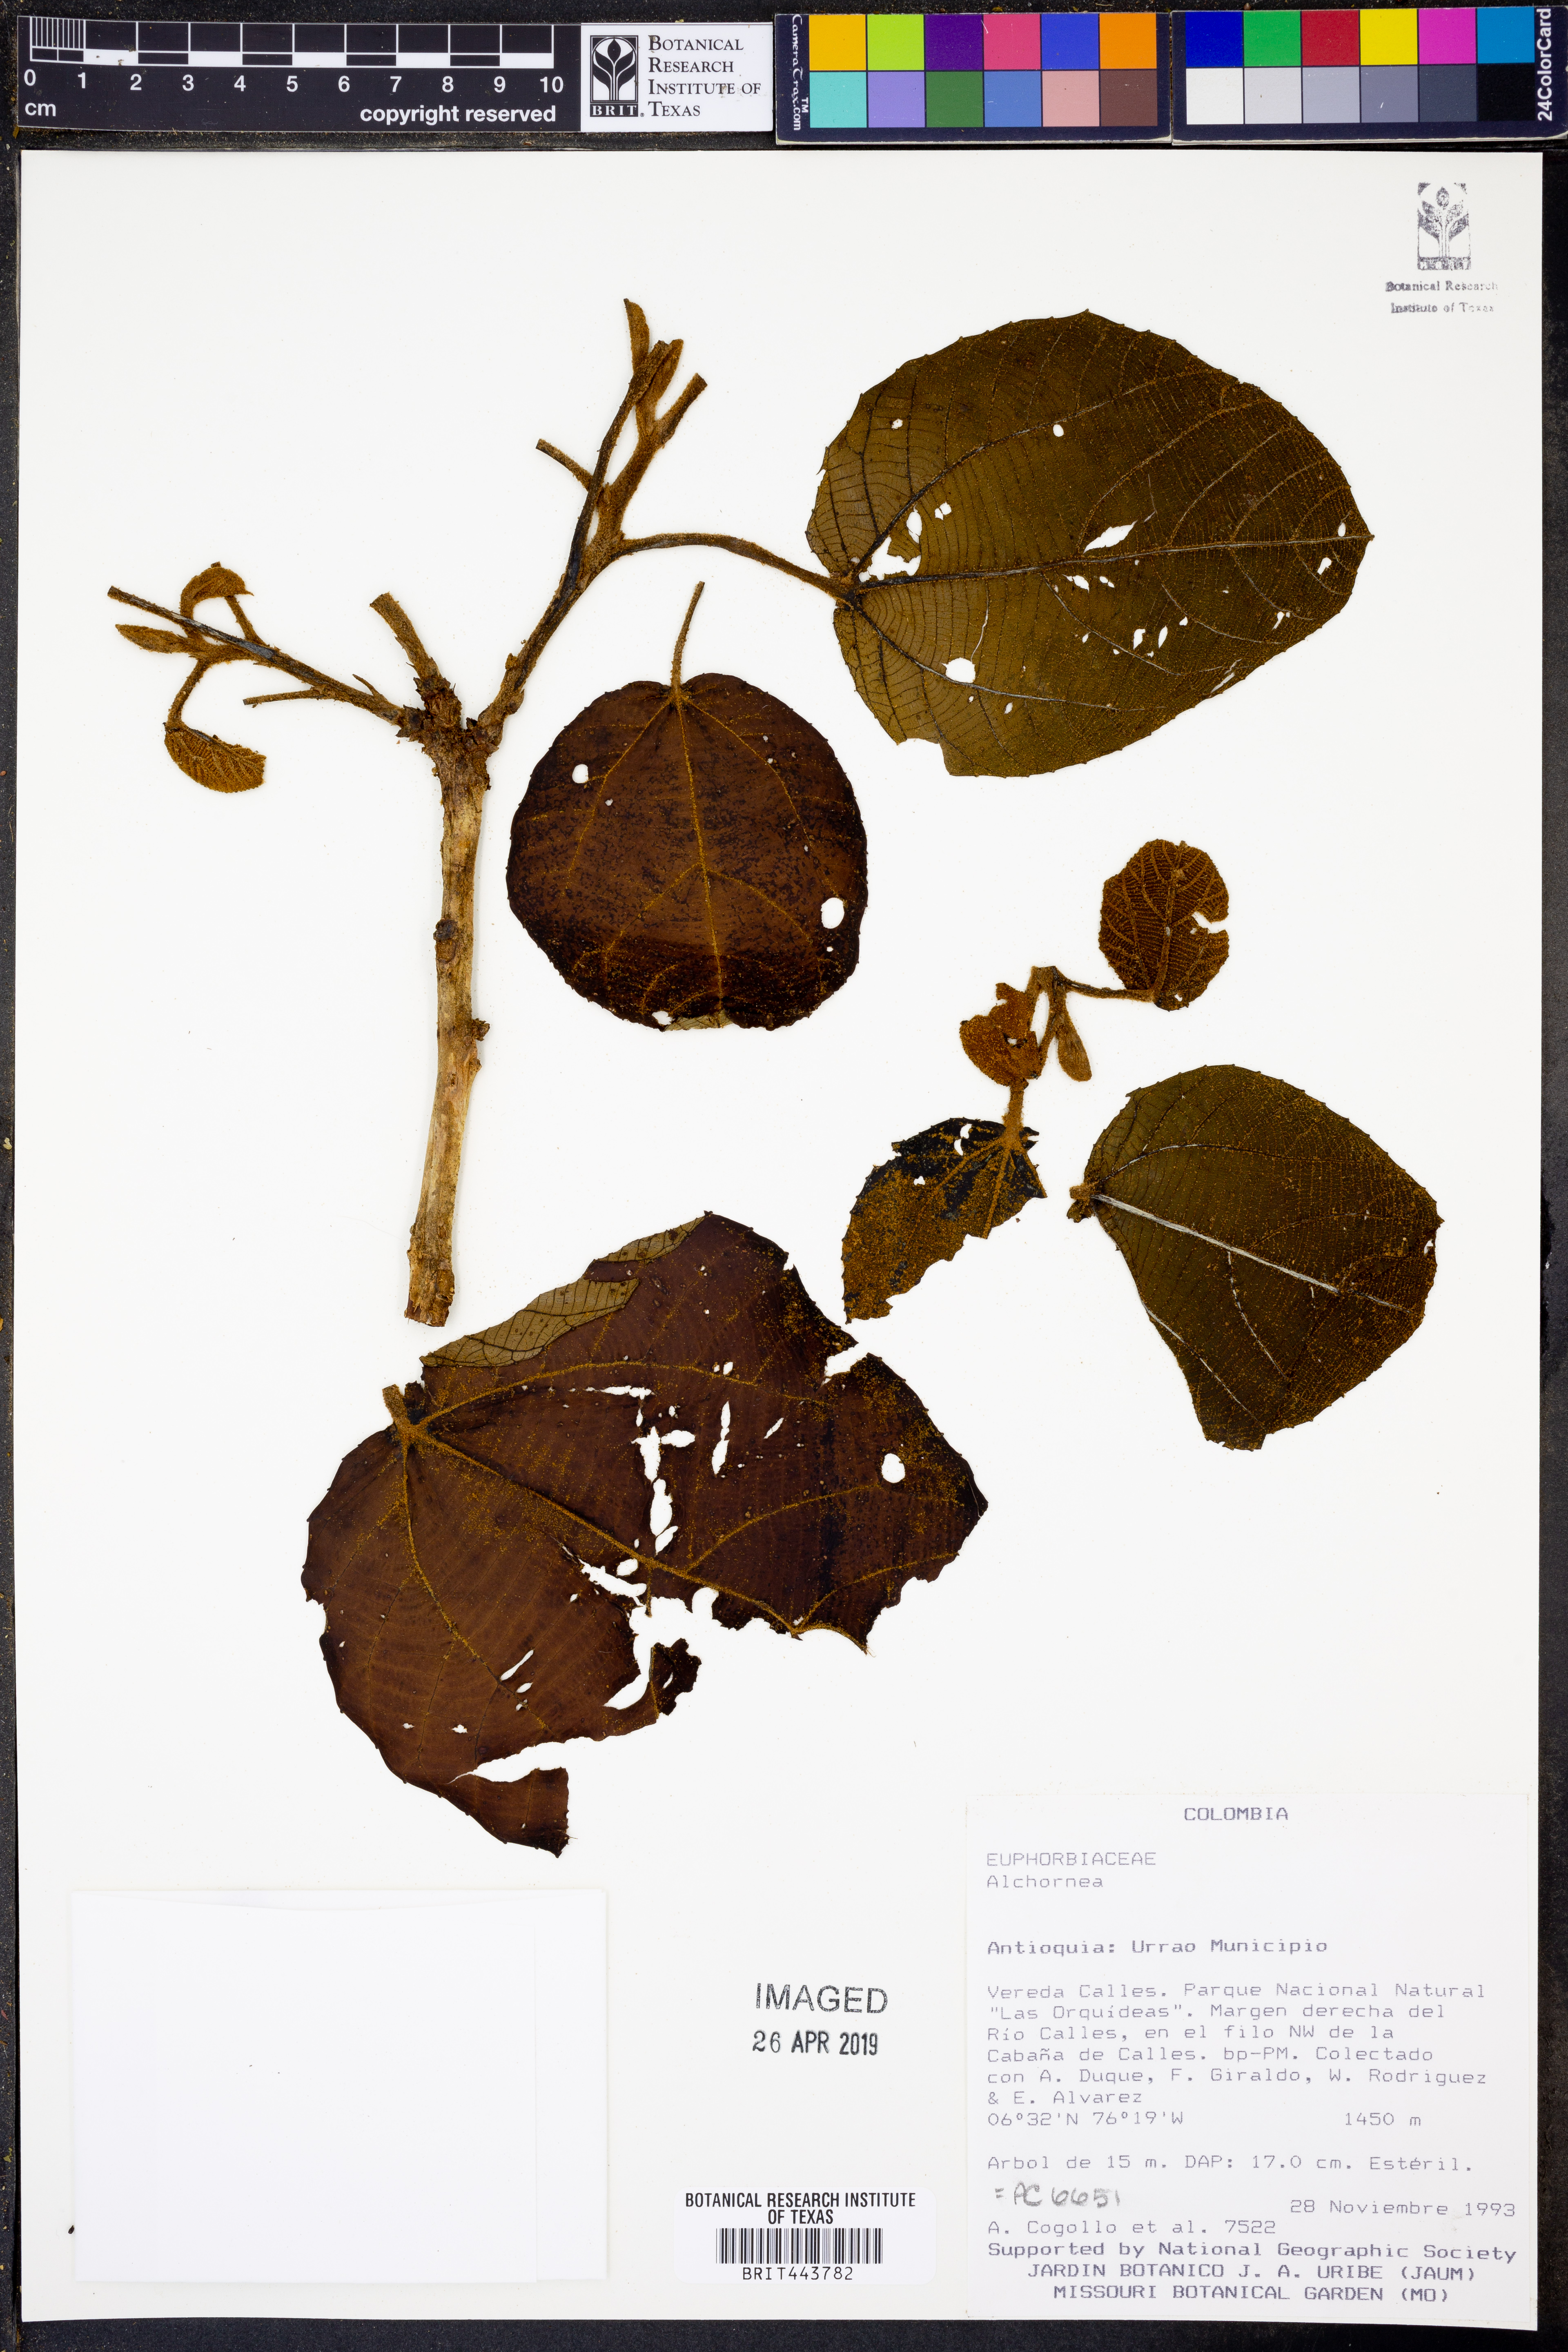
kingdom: Plantae
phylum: Tracheophyta
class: Magnoliopsida
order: Malpighiales
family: Euphorbiaceae
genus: Alchornea
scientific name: Alchornea
